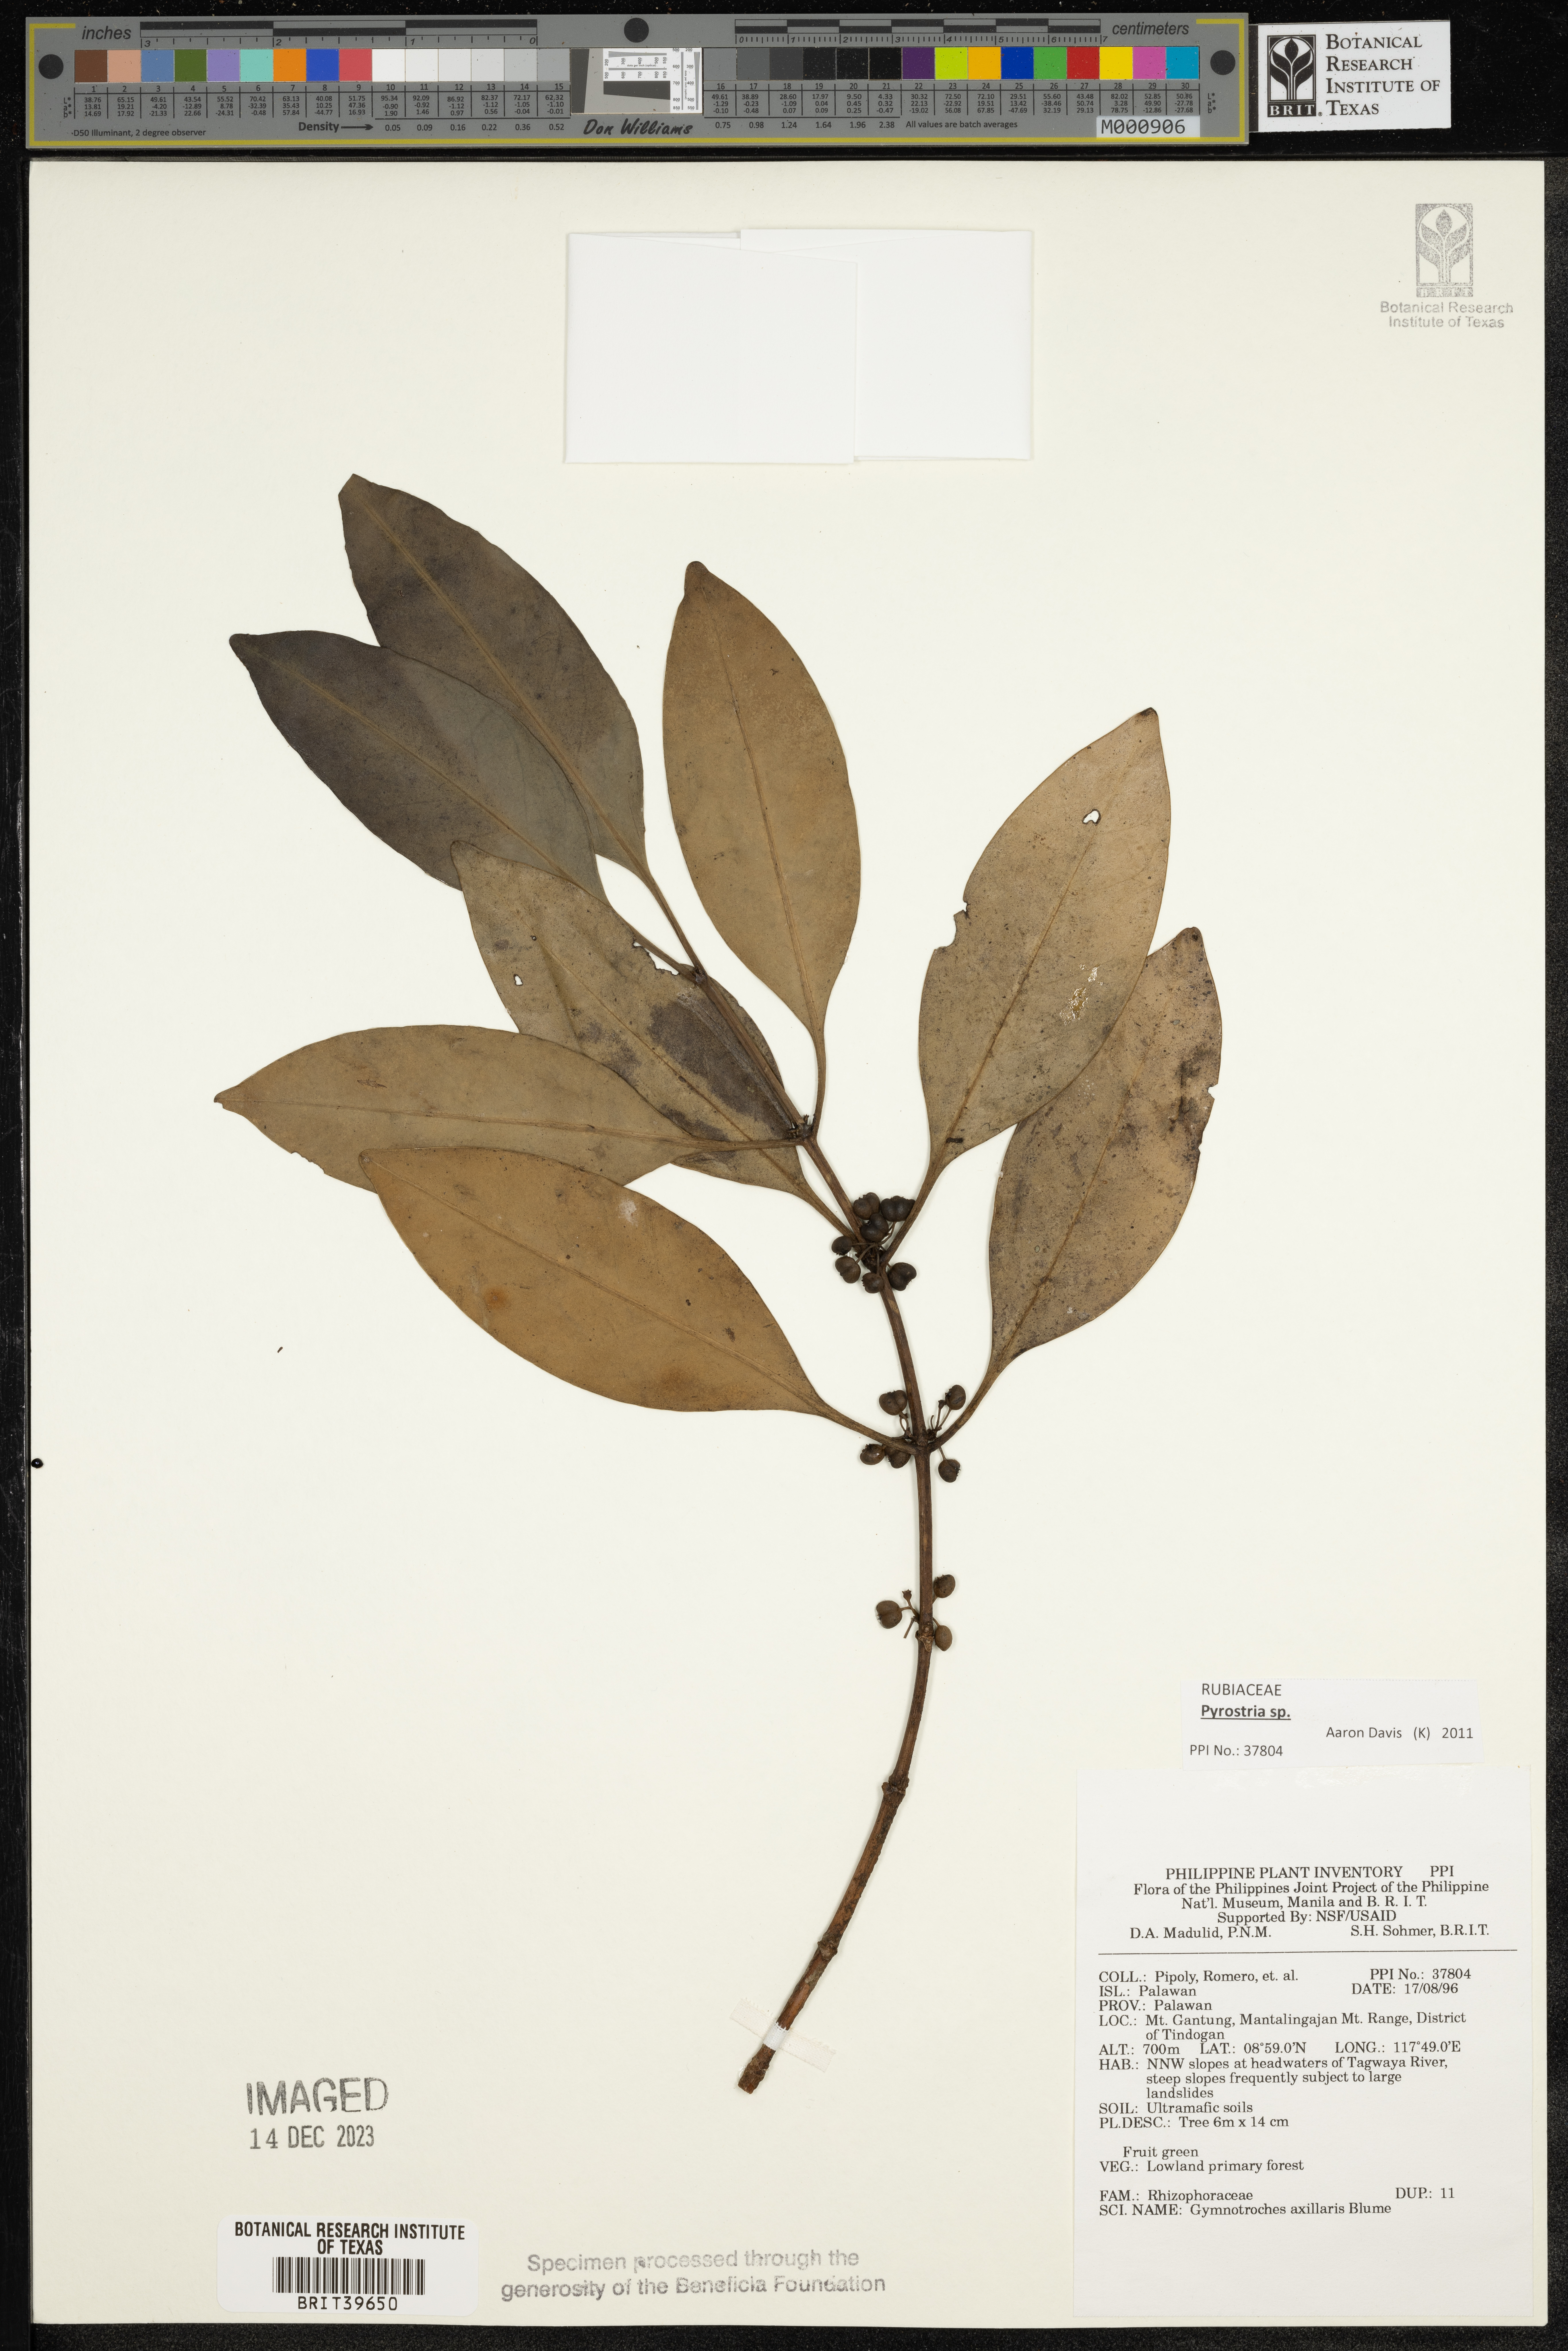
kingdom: Plantae
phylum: Tracheophyta
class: Magnoliopsida
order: Malpighiales
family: Rhizophoraceae
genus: Gynotroches
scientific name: Gynotroches axillaris
